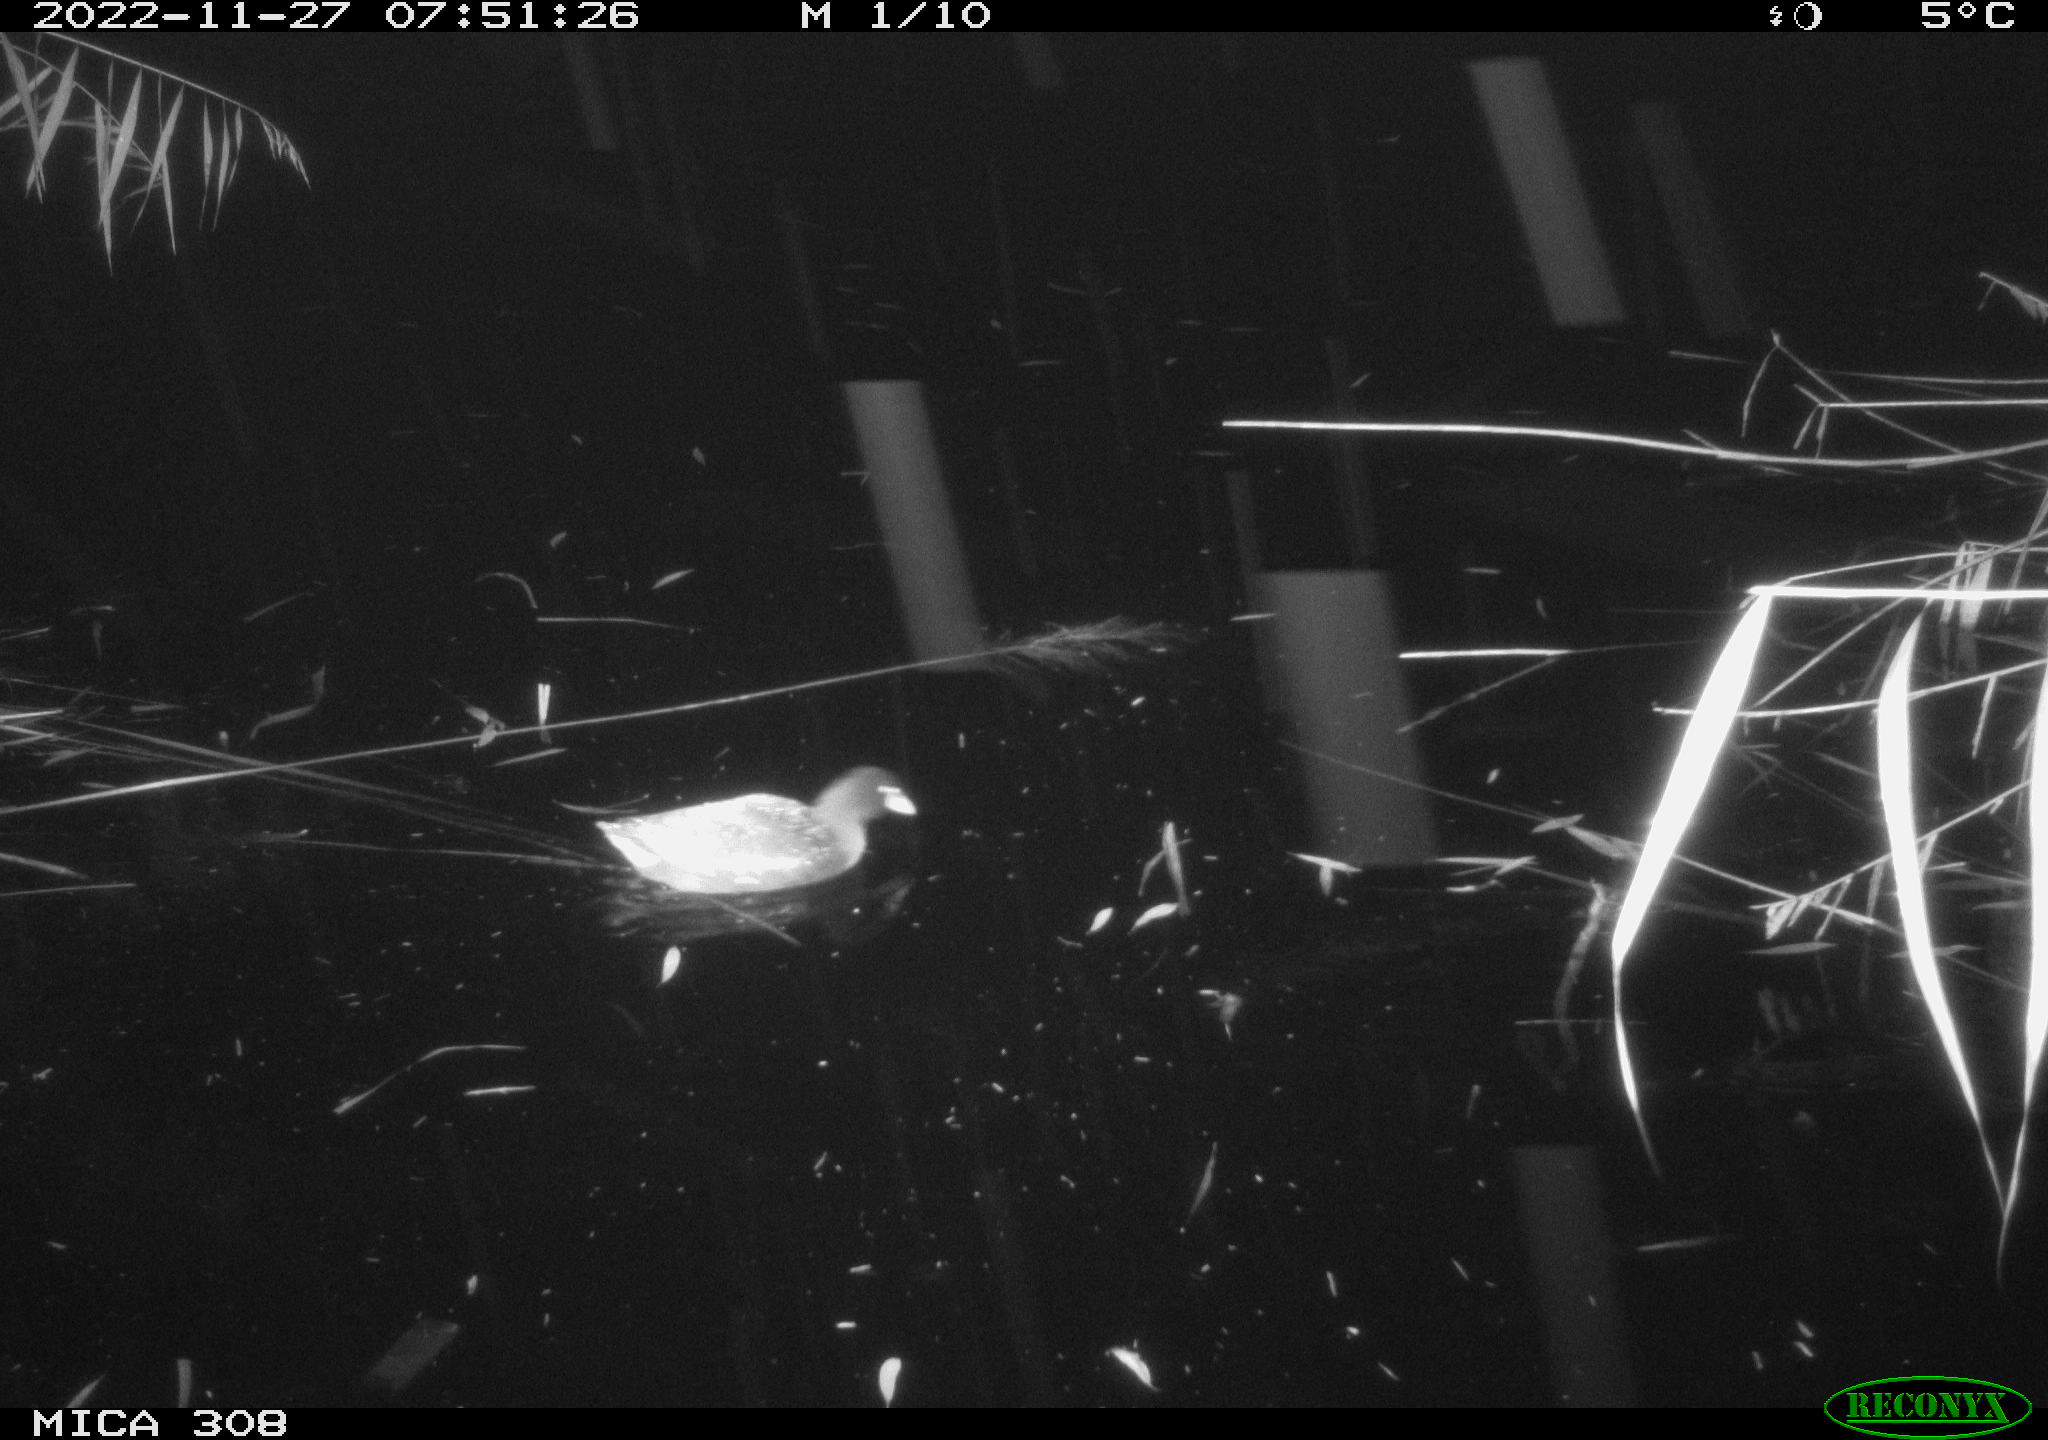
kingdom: Animalia
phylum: Chordata
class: Aves
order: Gruiformes
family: Rallidae
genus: Gallinula
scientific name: Gallinula chloropus
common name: Common moorhen
